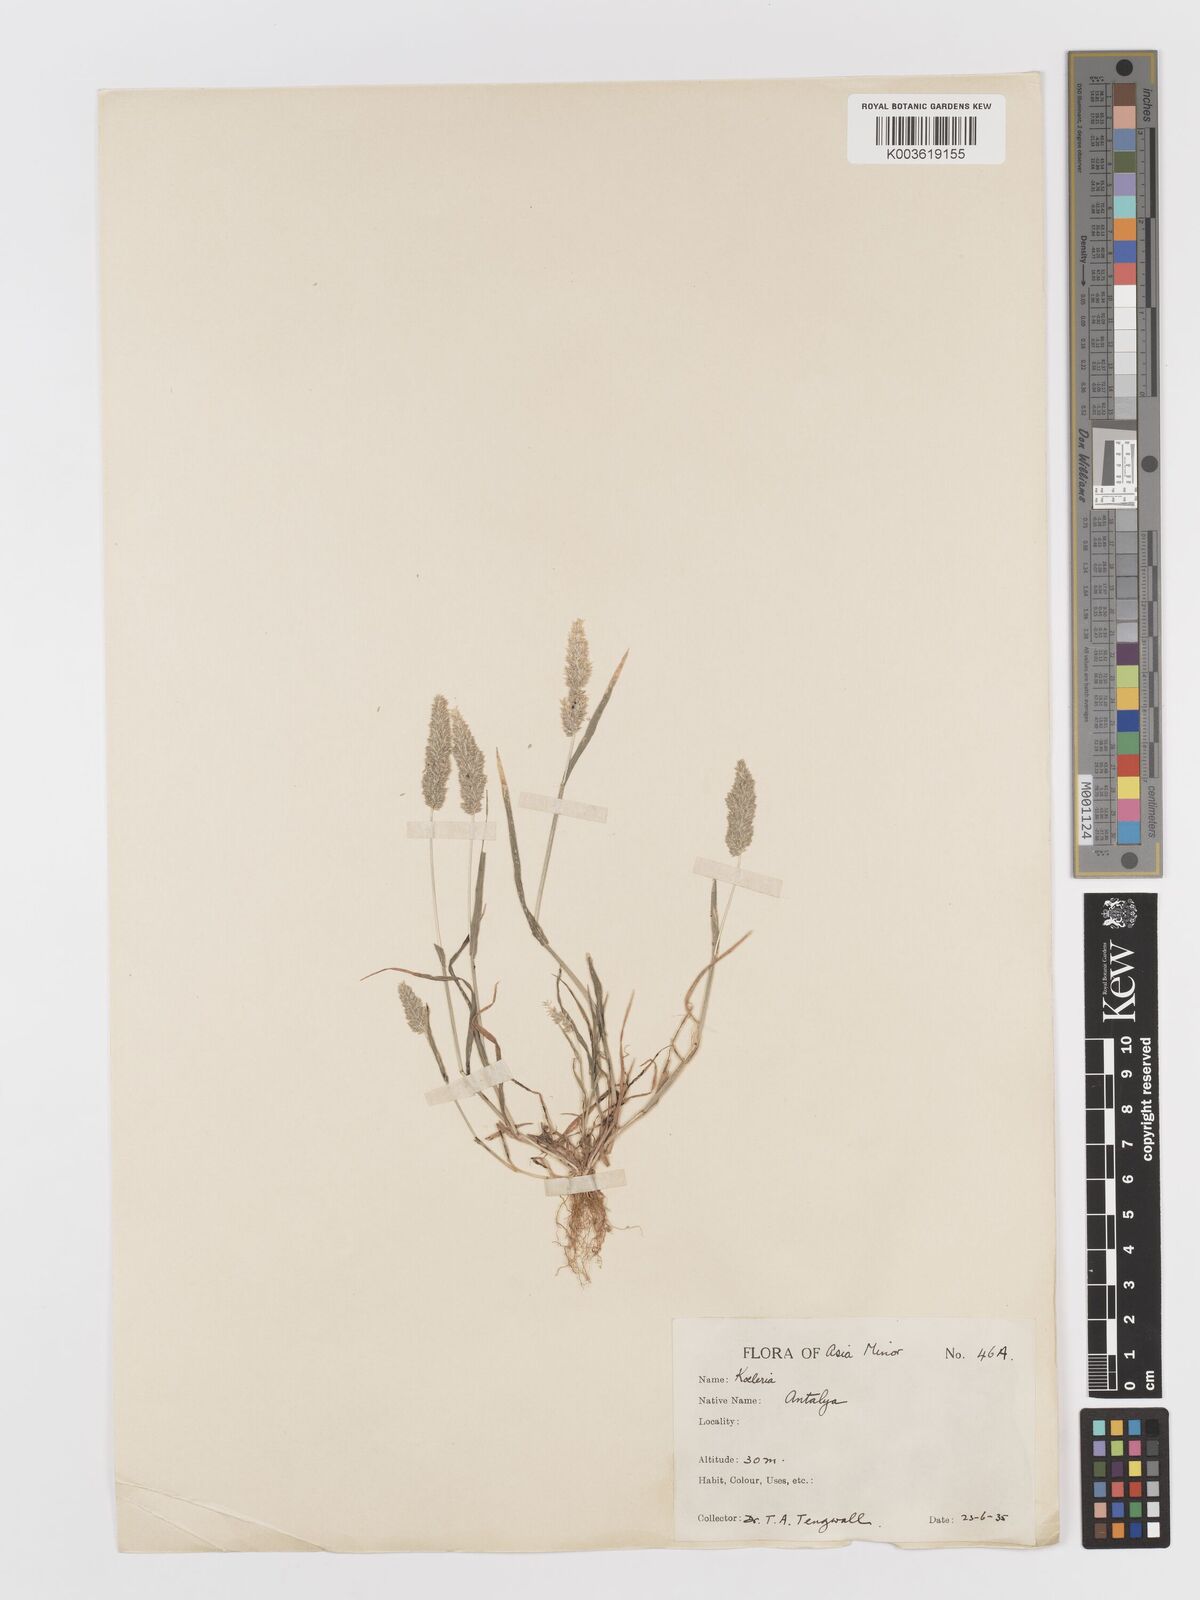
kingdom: Plantae
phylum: Tracheophyta
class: Liliopsida
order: Poales
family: Poaceae
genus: Rostraria
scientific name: Rostraria
